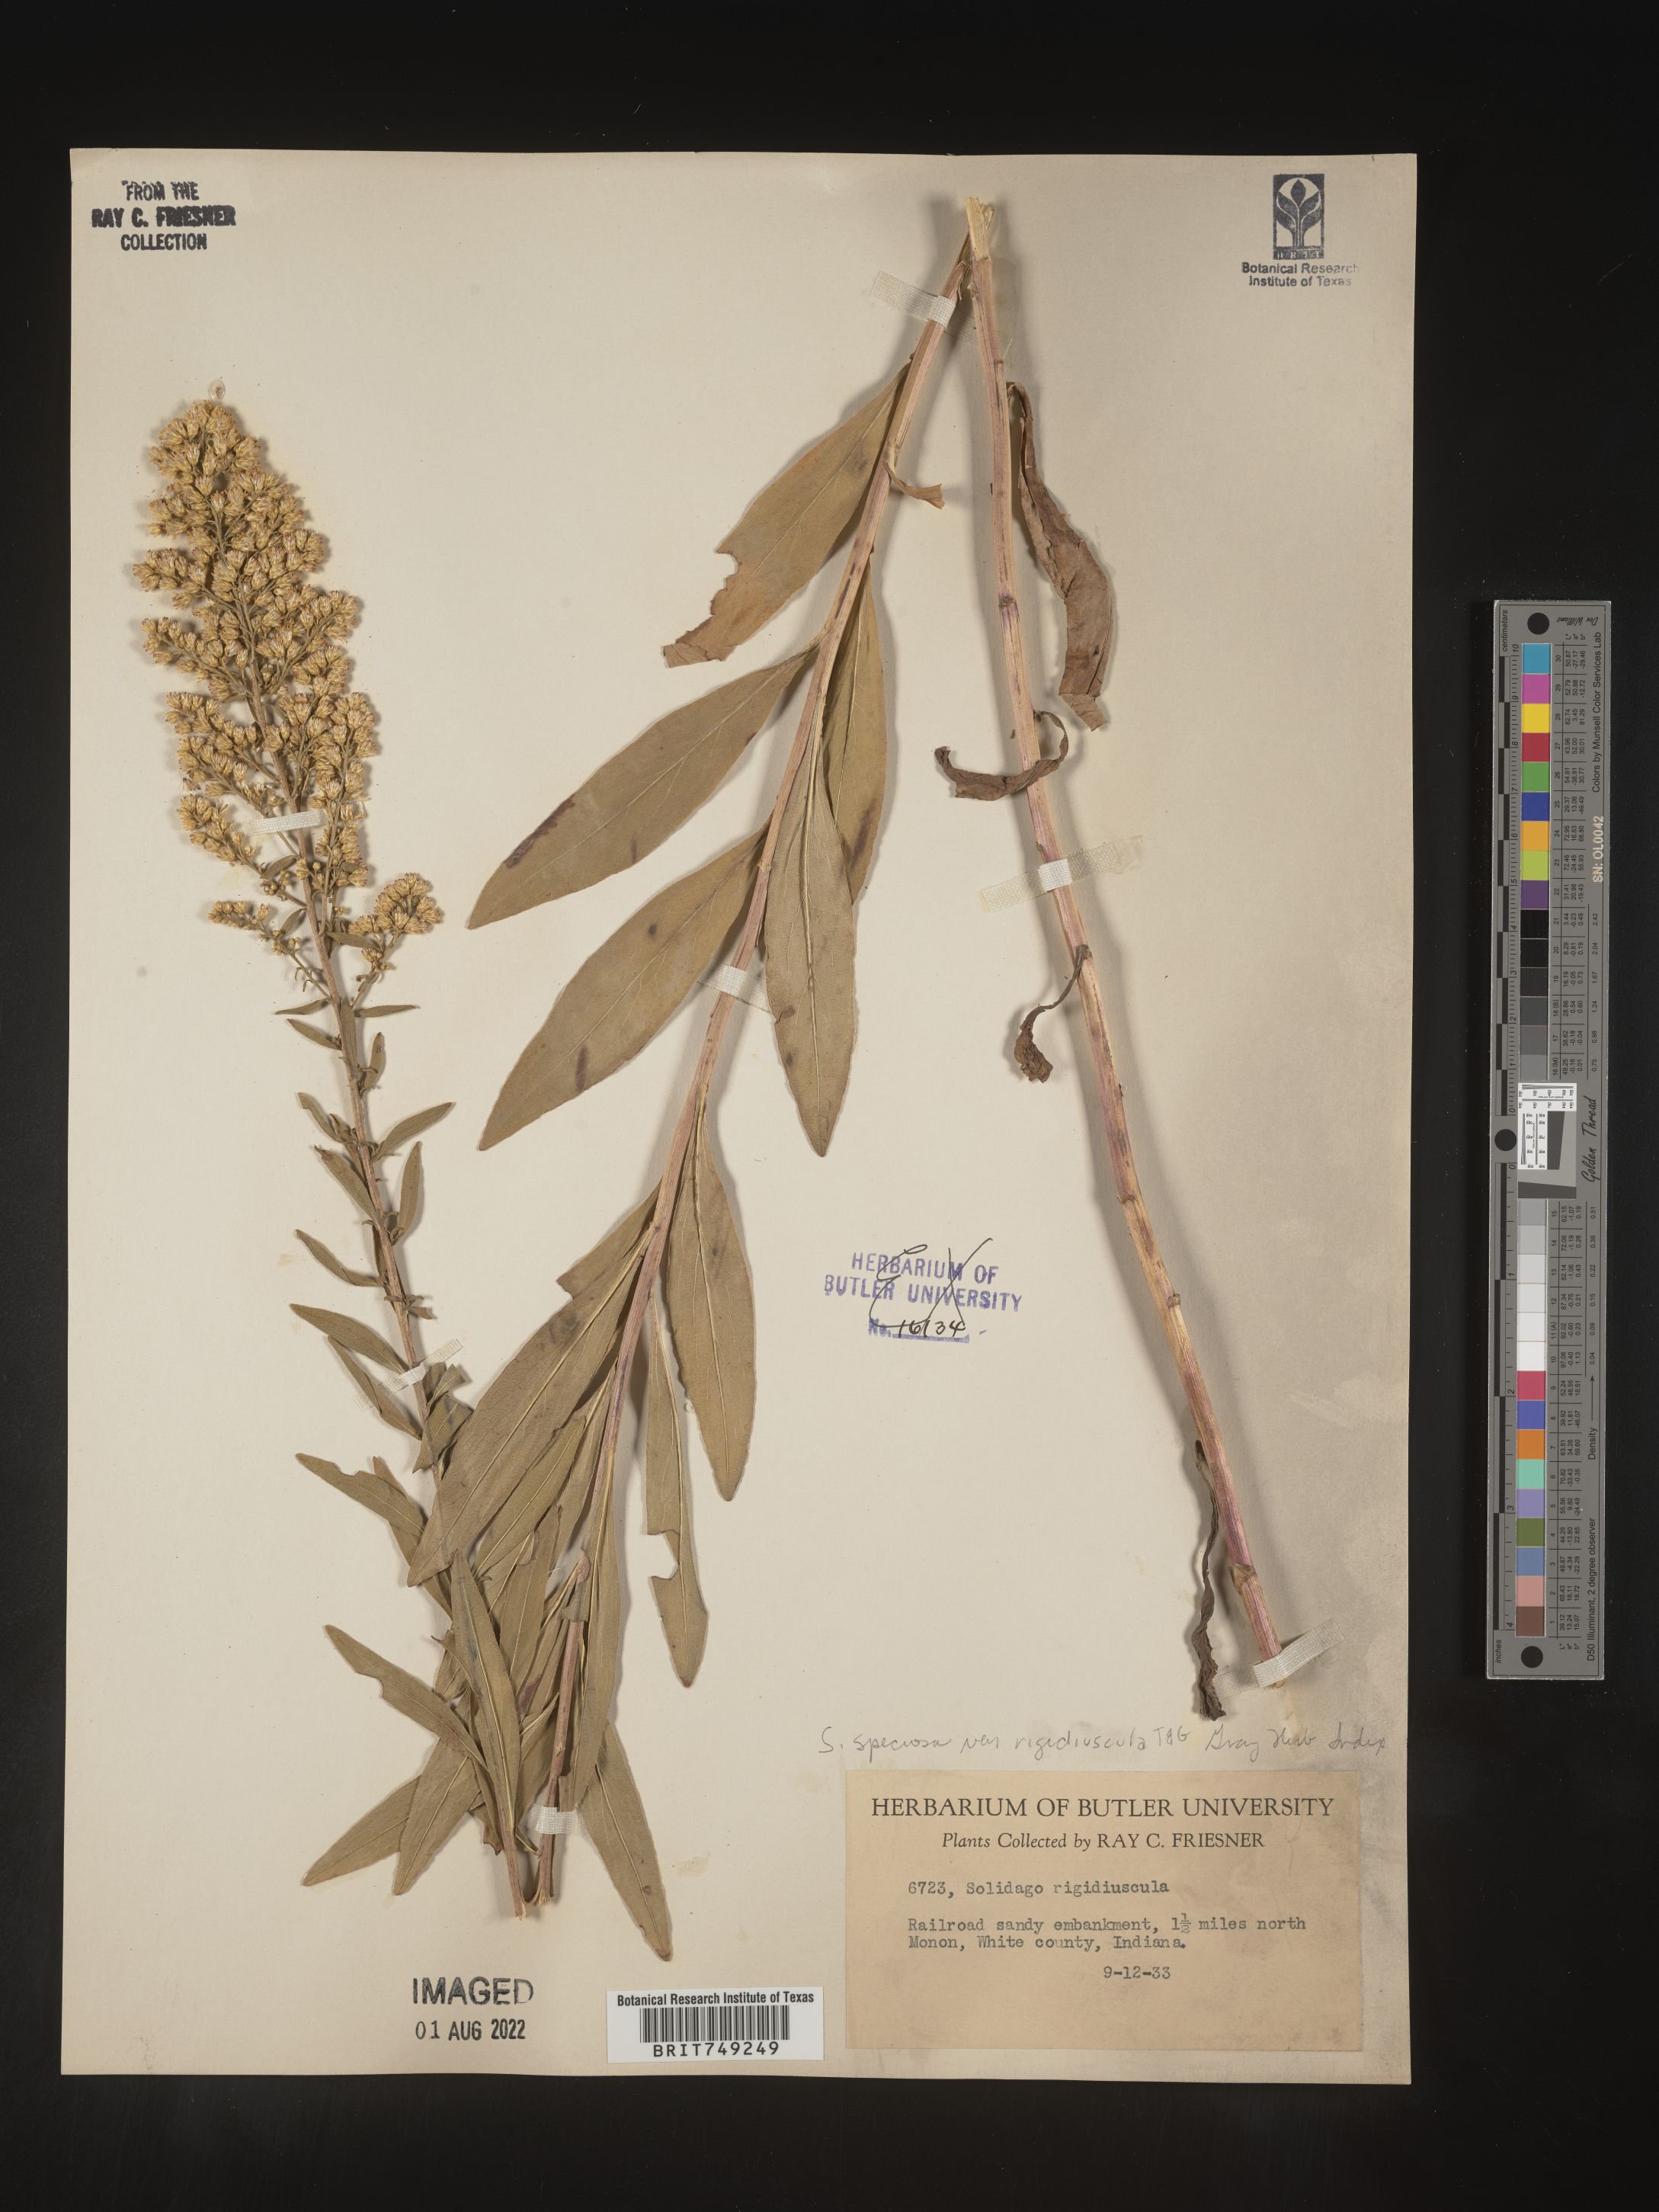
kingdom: Plantae
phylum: Tracheophyta
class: Magnoliopsida
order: Asterales
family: Asteraceae
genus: Solidago
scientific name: Solidago speciosa
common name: Showy goldenrod
